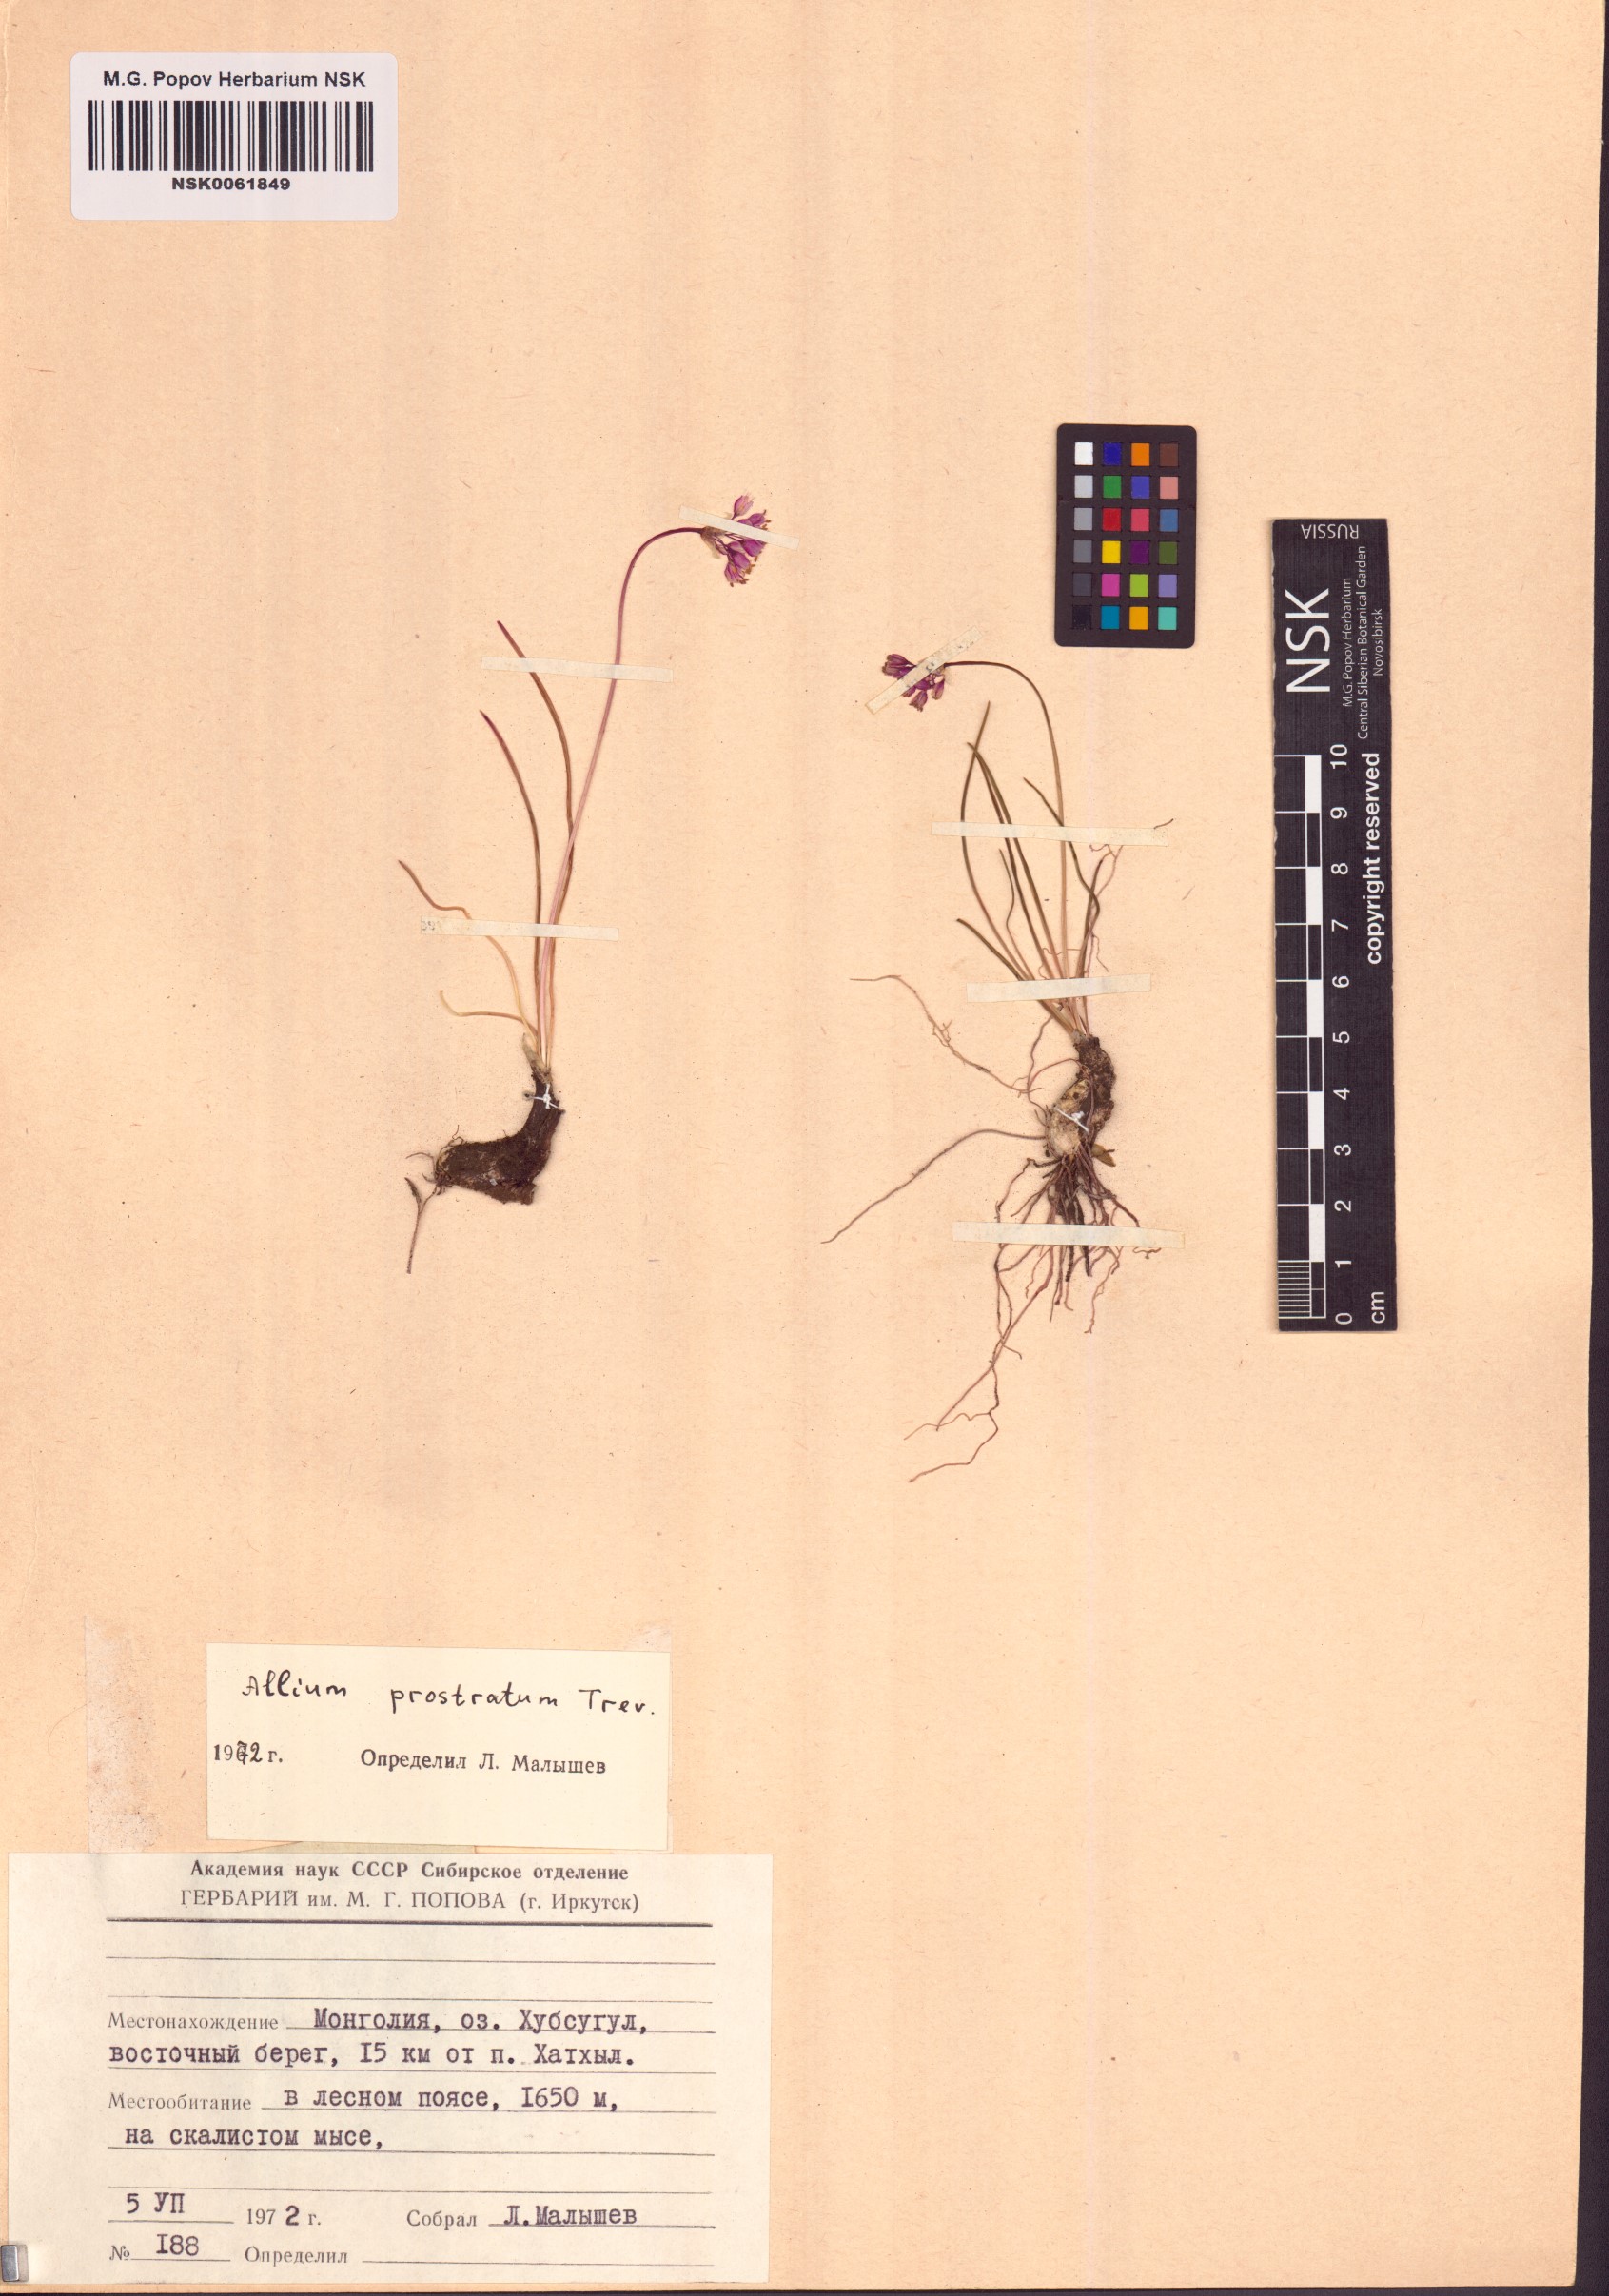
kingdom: Plantae
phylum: Tracheophyta
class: Liliopsida
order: Asparagales
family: Amaryllidaceae
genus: Allium
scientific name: Allium prostratum
